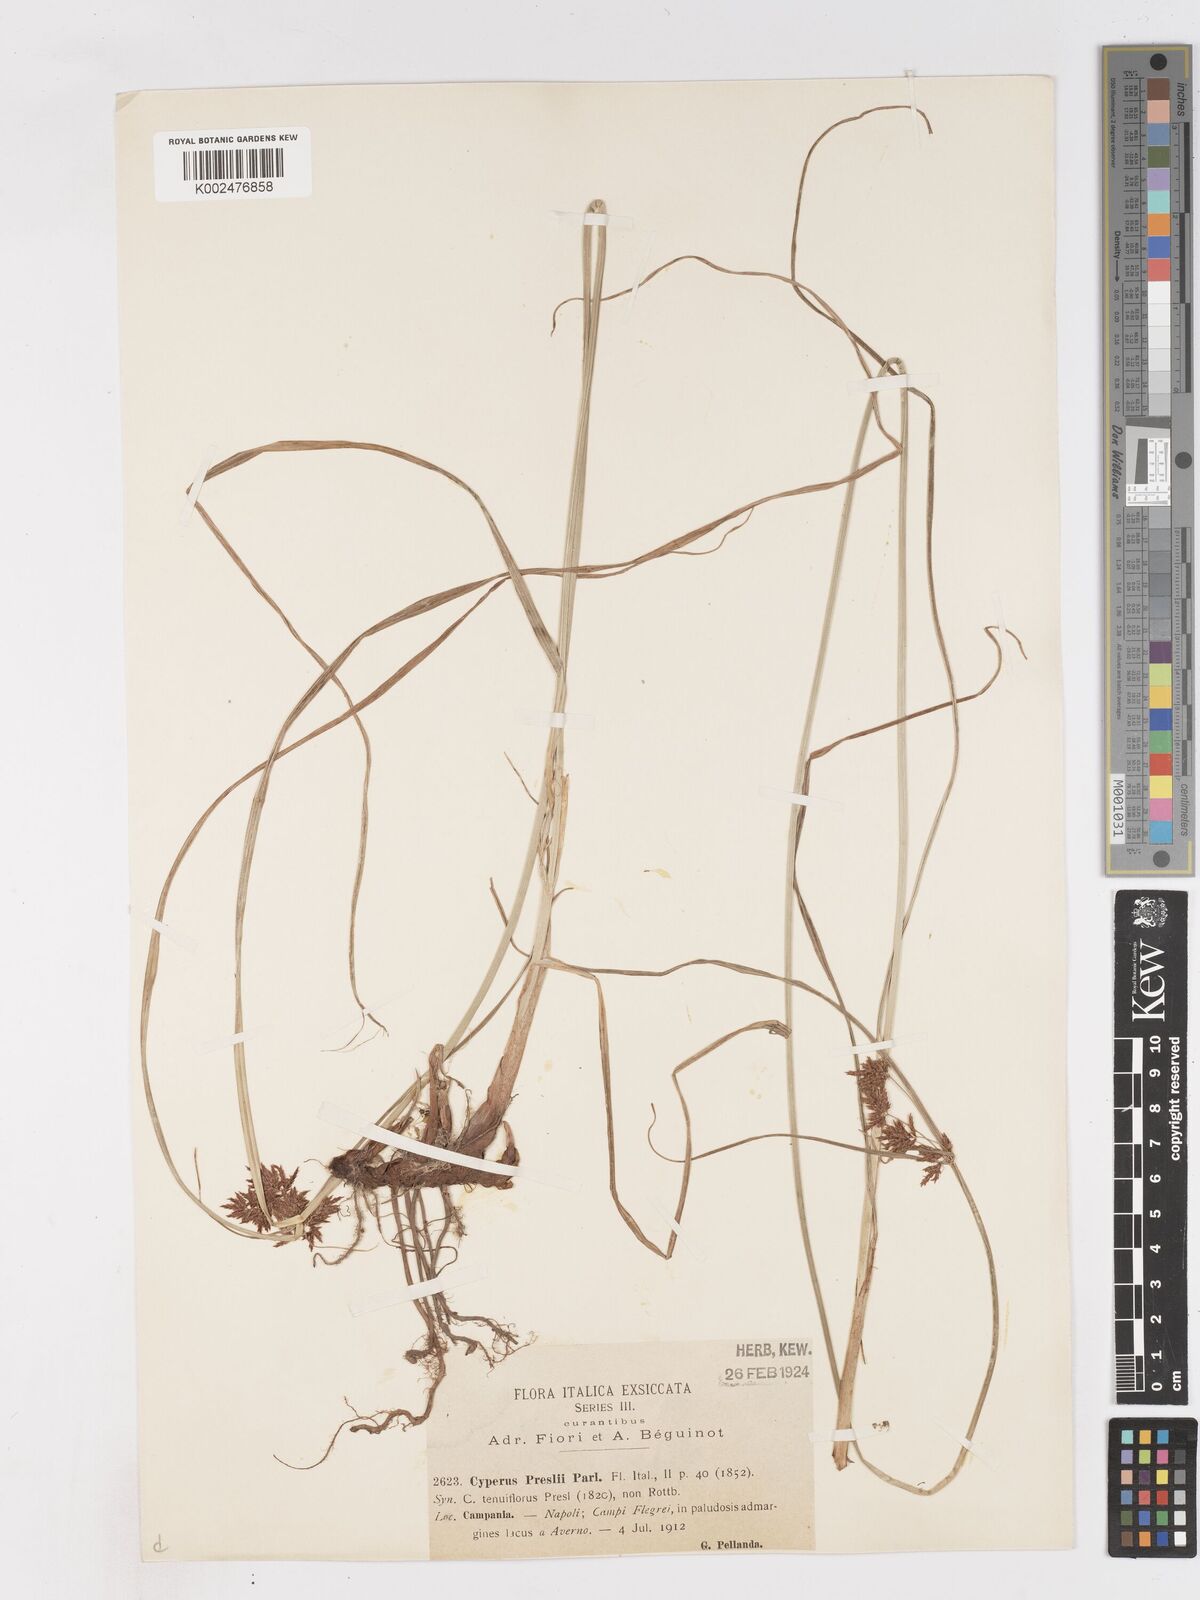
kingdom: Plantae
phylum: Tracheophyta
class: Liliopsida
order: Poales
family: Cyperaceae
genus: Cyperus
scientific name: Cyperus longus
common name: Galingale
